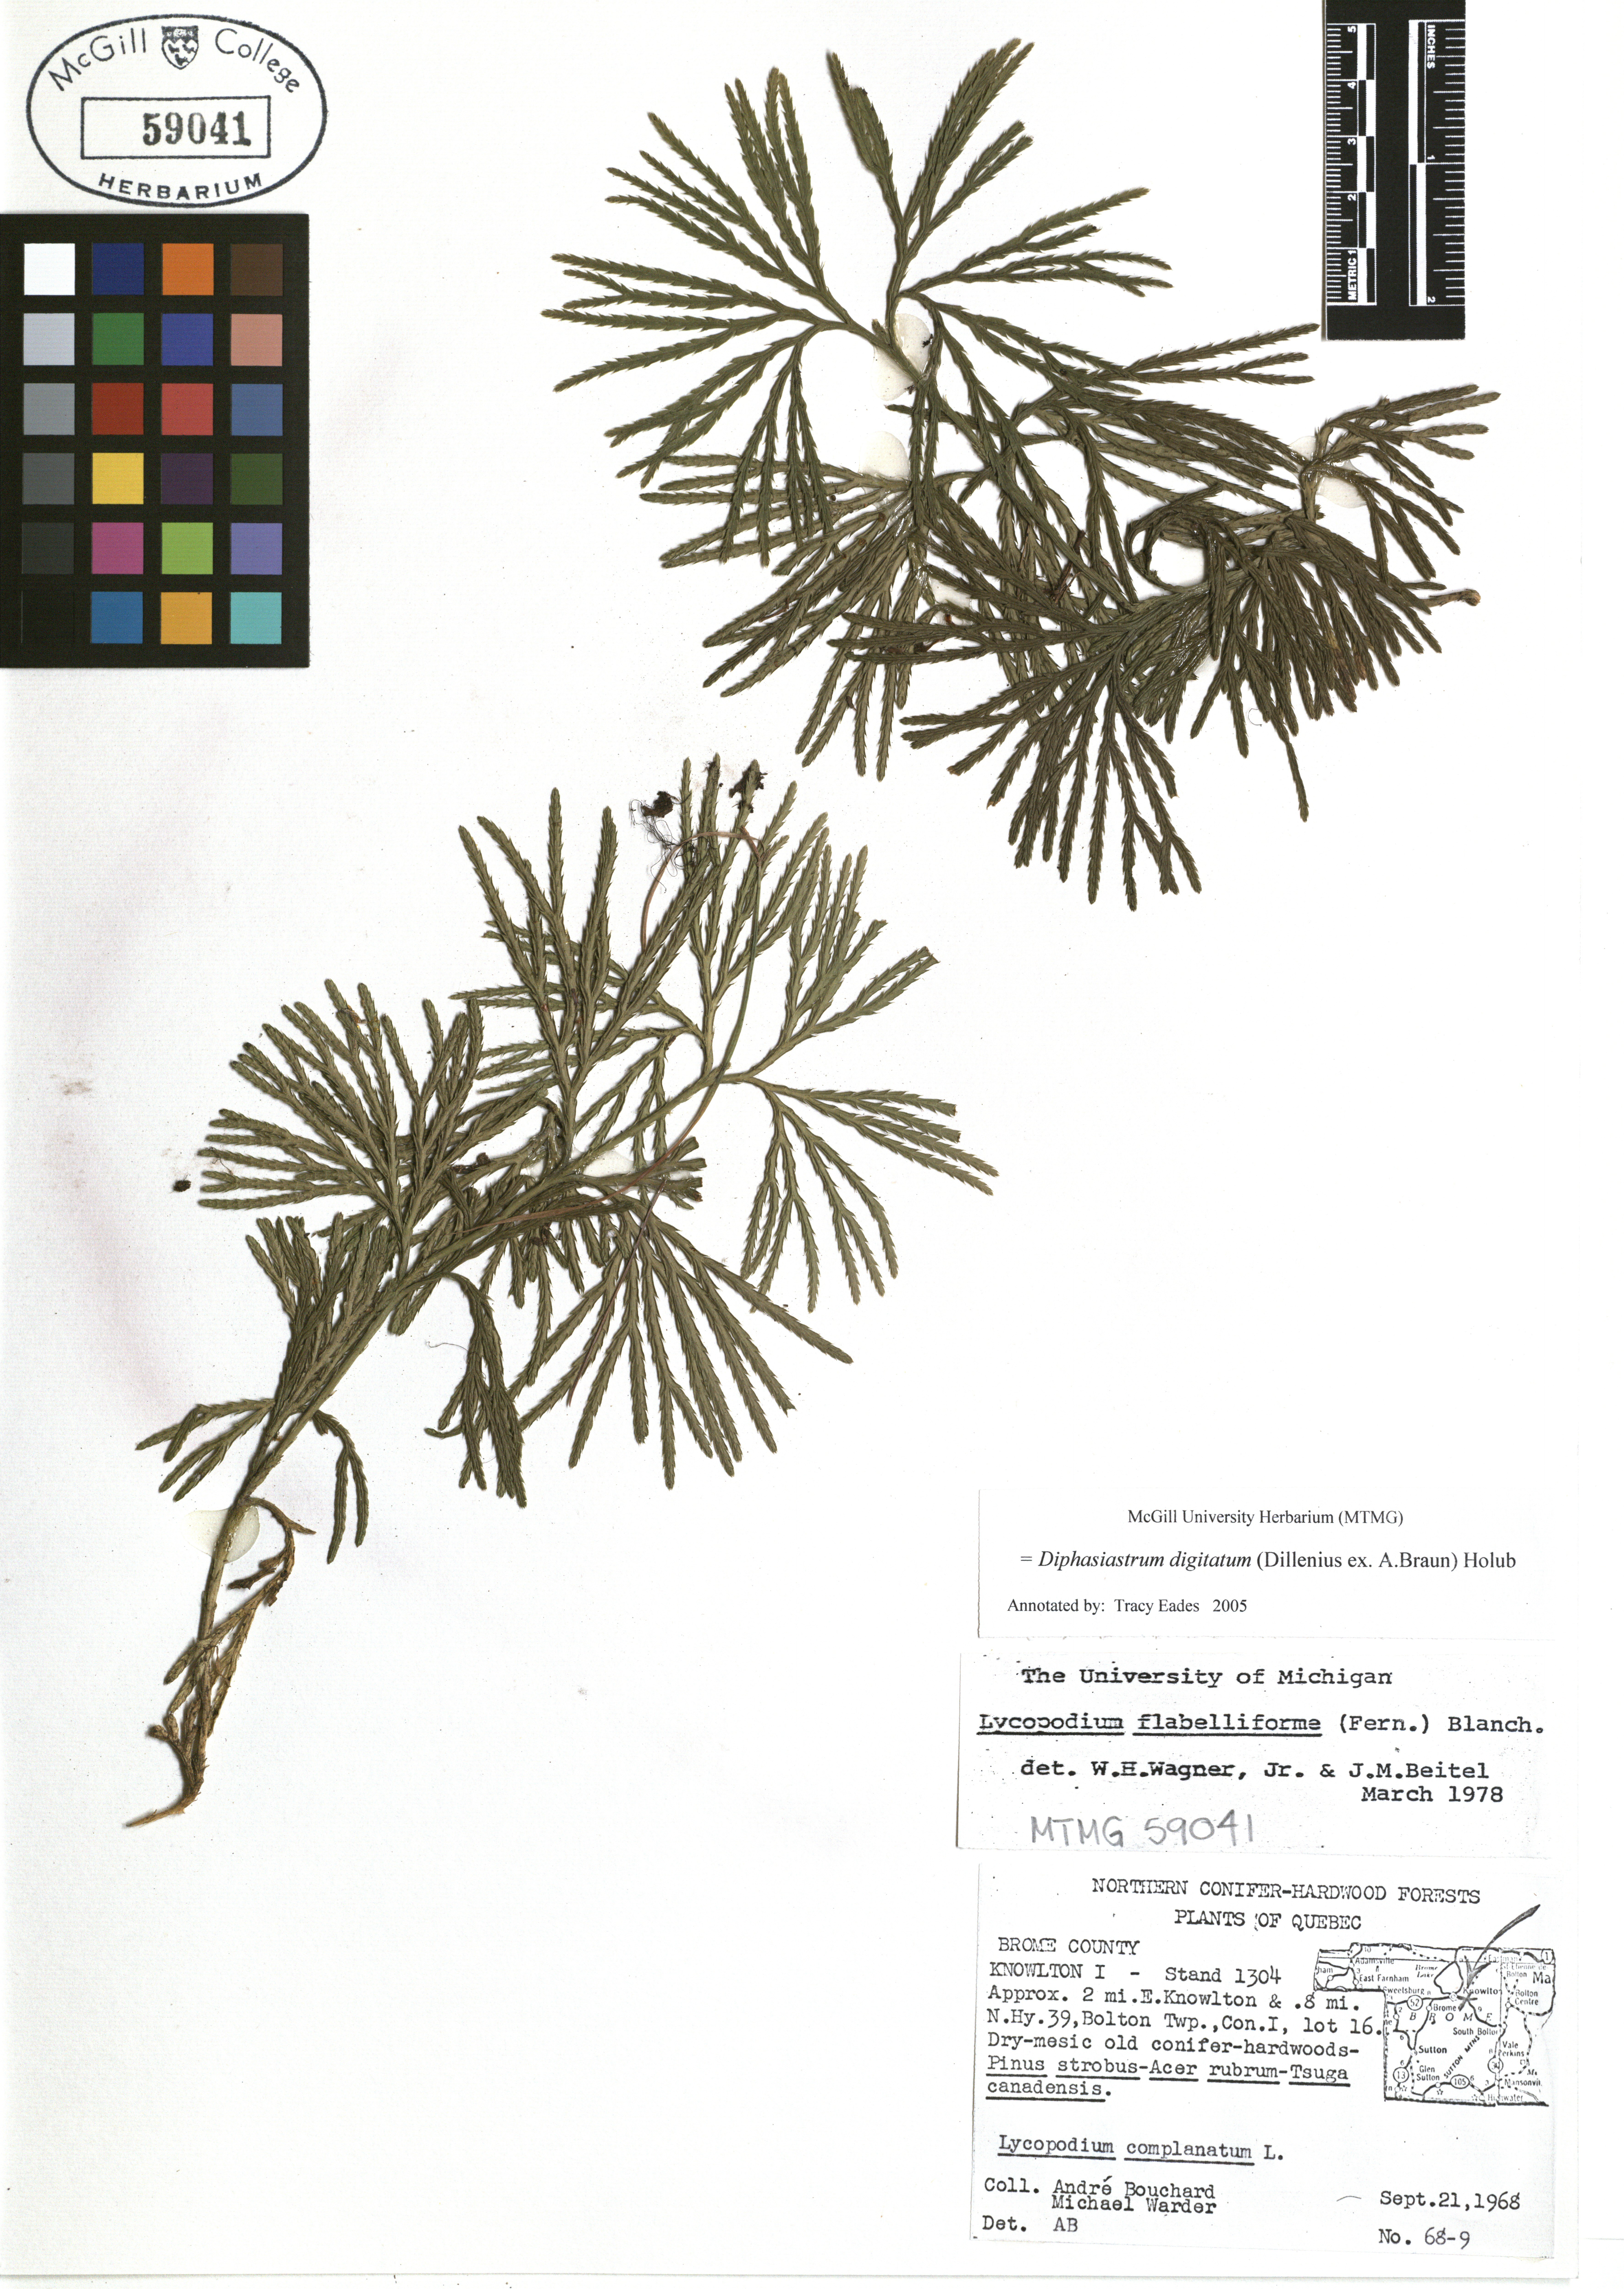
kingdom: Plantae
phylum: Tracheophyta
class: Lycopodiopsida
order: Lycopodiales
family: Lycopodiaceae
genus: Diphasiastrum
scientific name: Diphasiastrum digitatum
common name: Southern running-pine
